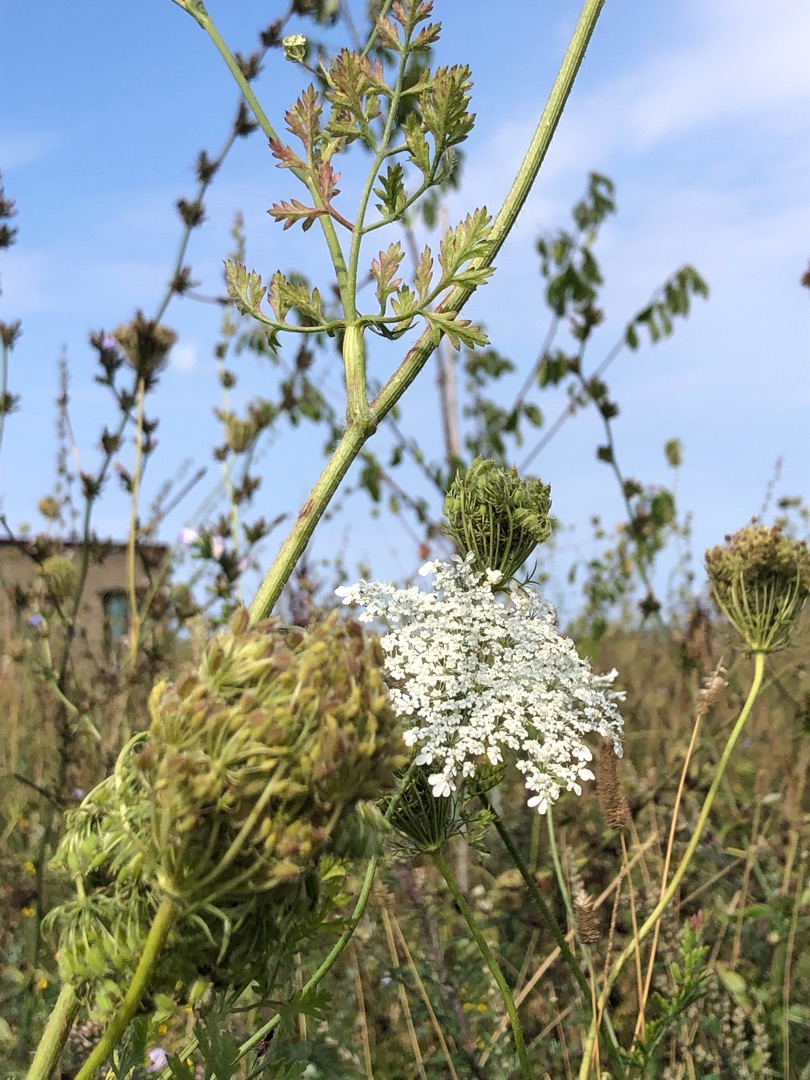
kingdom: Plantae
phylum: Tracheophyta
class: Magnoliopsida
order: Apiales
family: Apiaceae
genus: Daucus
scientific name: Daucus carota
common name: Vild gulerod
